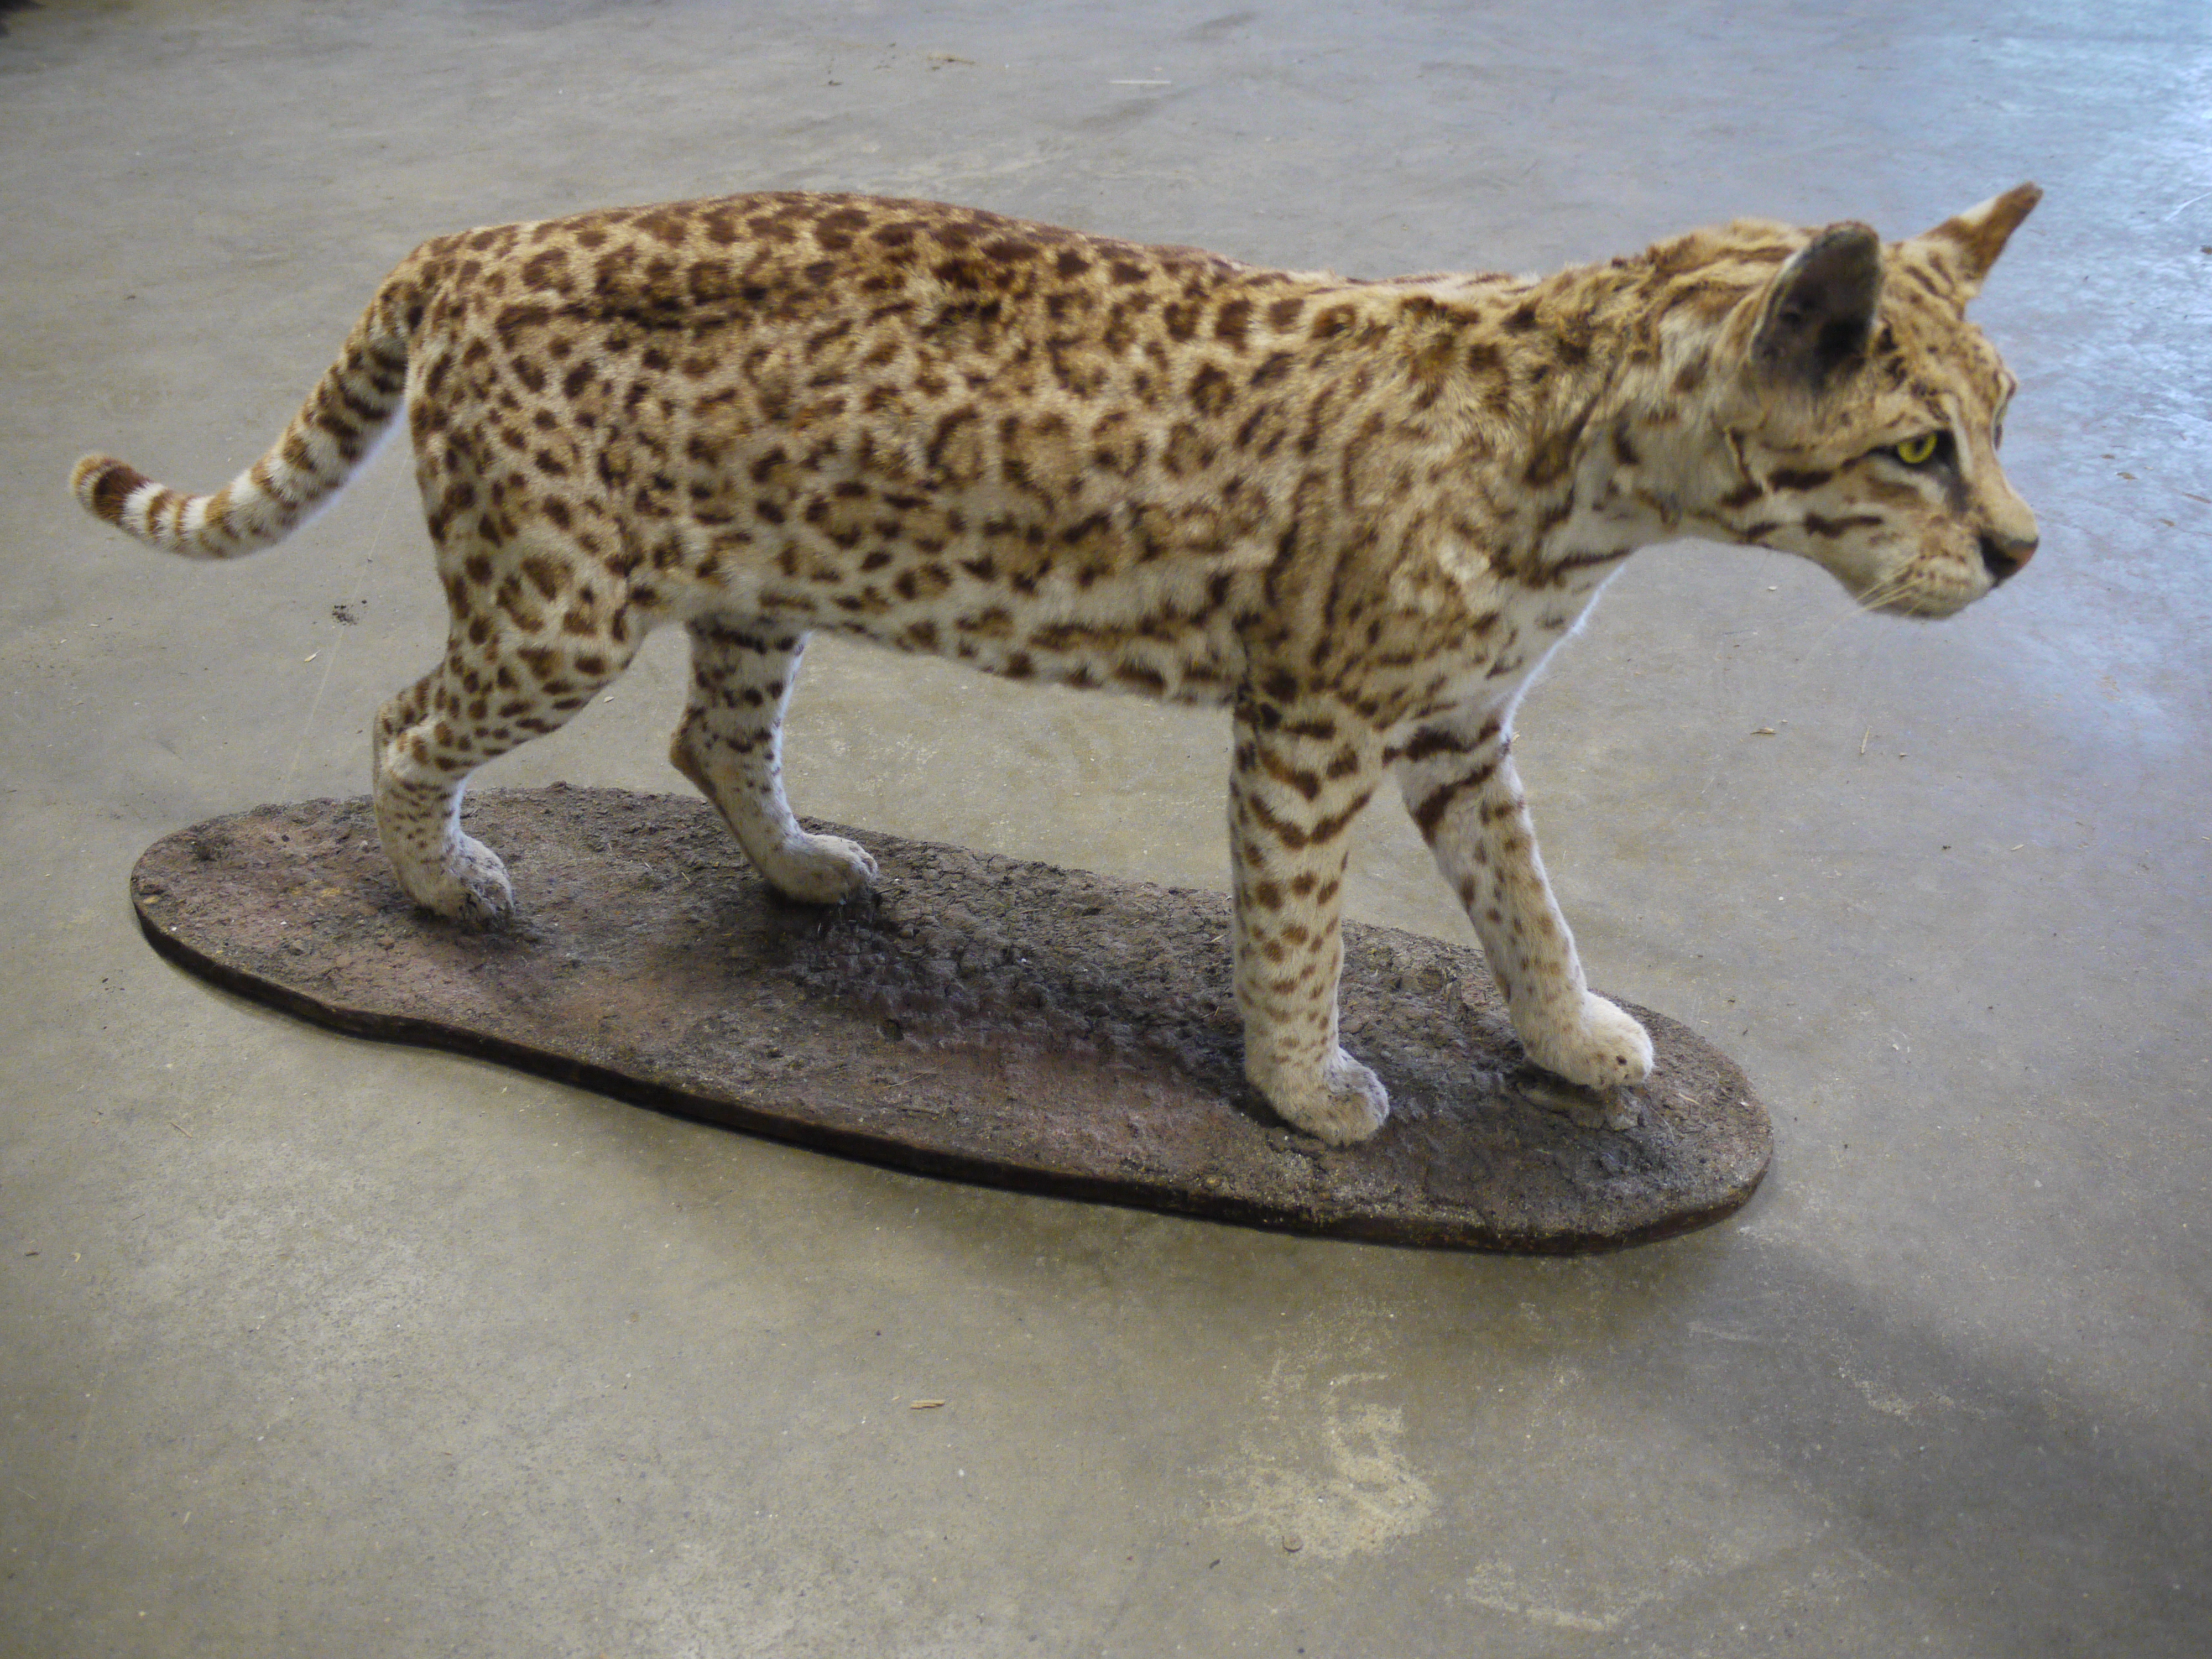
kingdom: Animalia
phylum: Chordata
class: Mammalia
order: Carnivora
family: Felidae
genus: Leopardus
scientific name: Leopardus pardalis
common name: Ocelot
